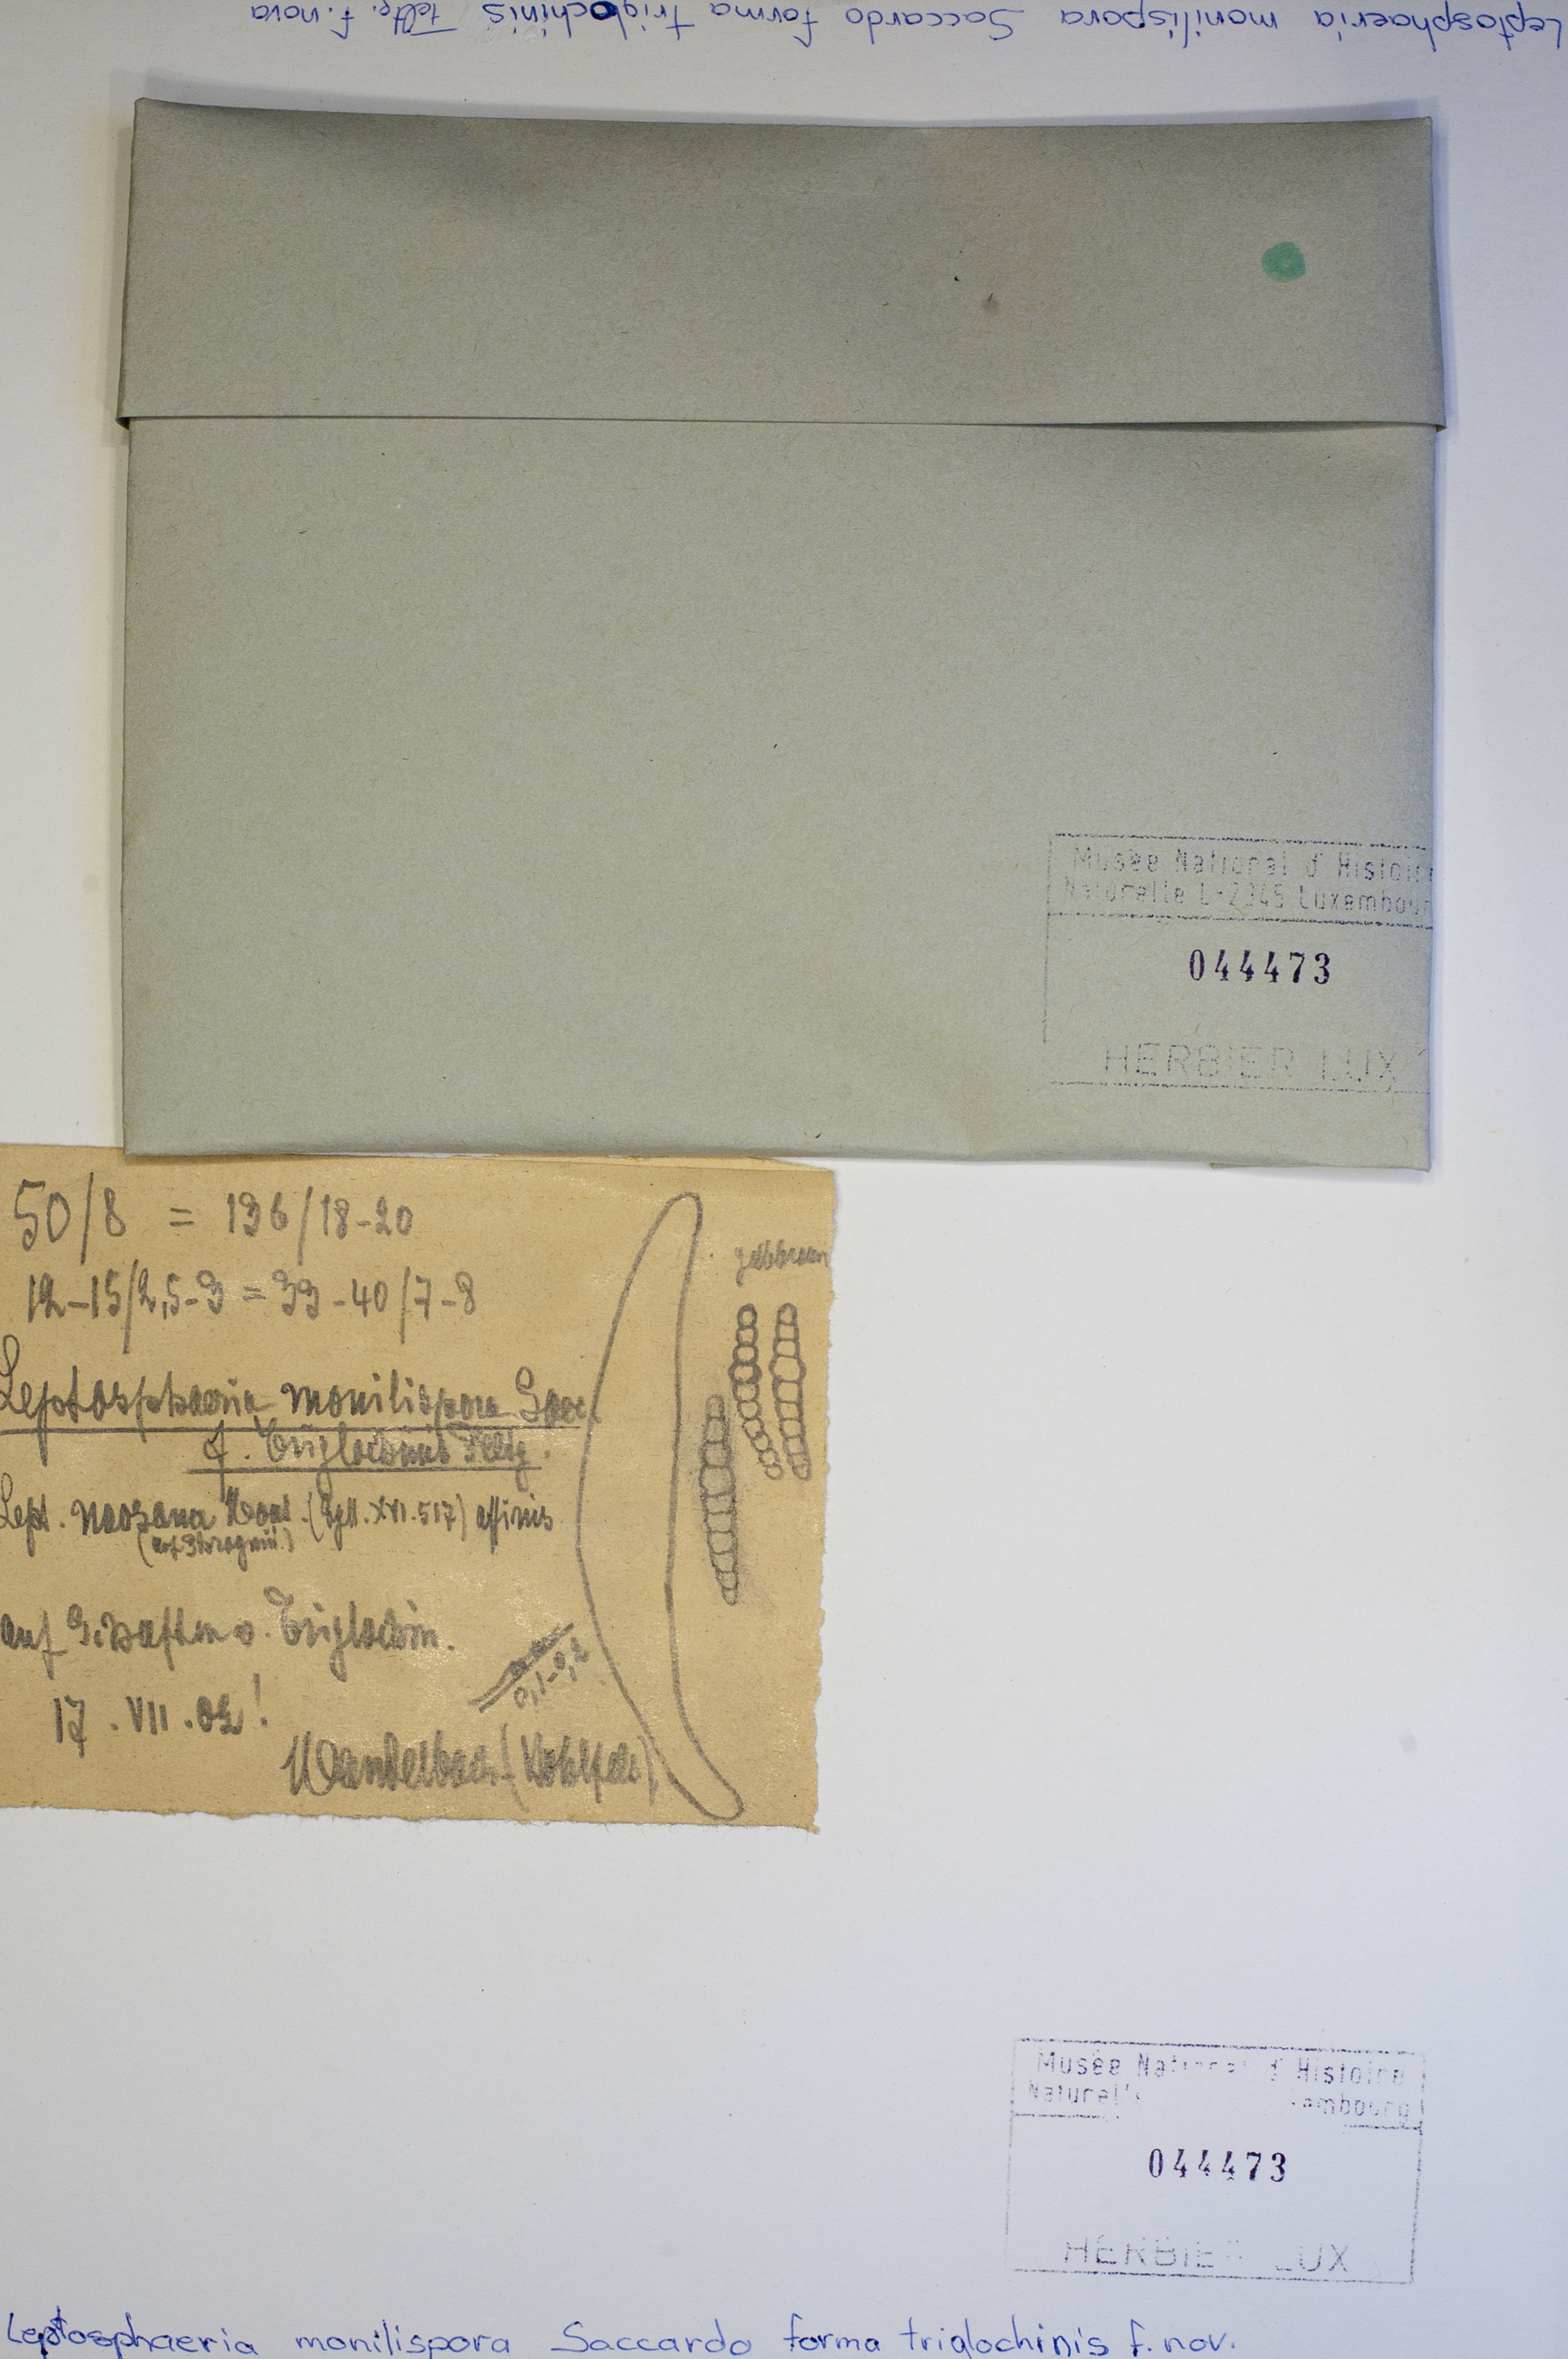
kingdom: Fungi
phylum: Ascomycota
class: Dothideomycetes
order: Pleosporales
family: Didymosphaeriaceae
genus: Paraphaeosphaeria
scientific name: Paraphaeosphaeria michotii
